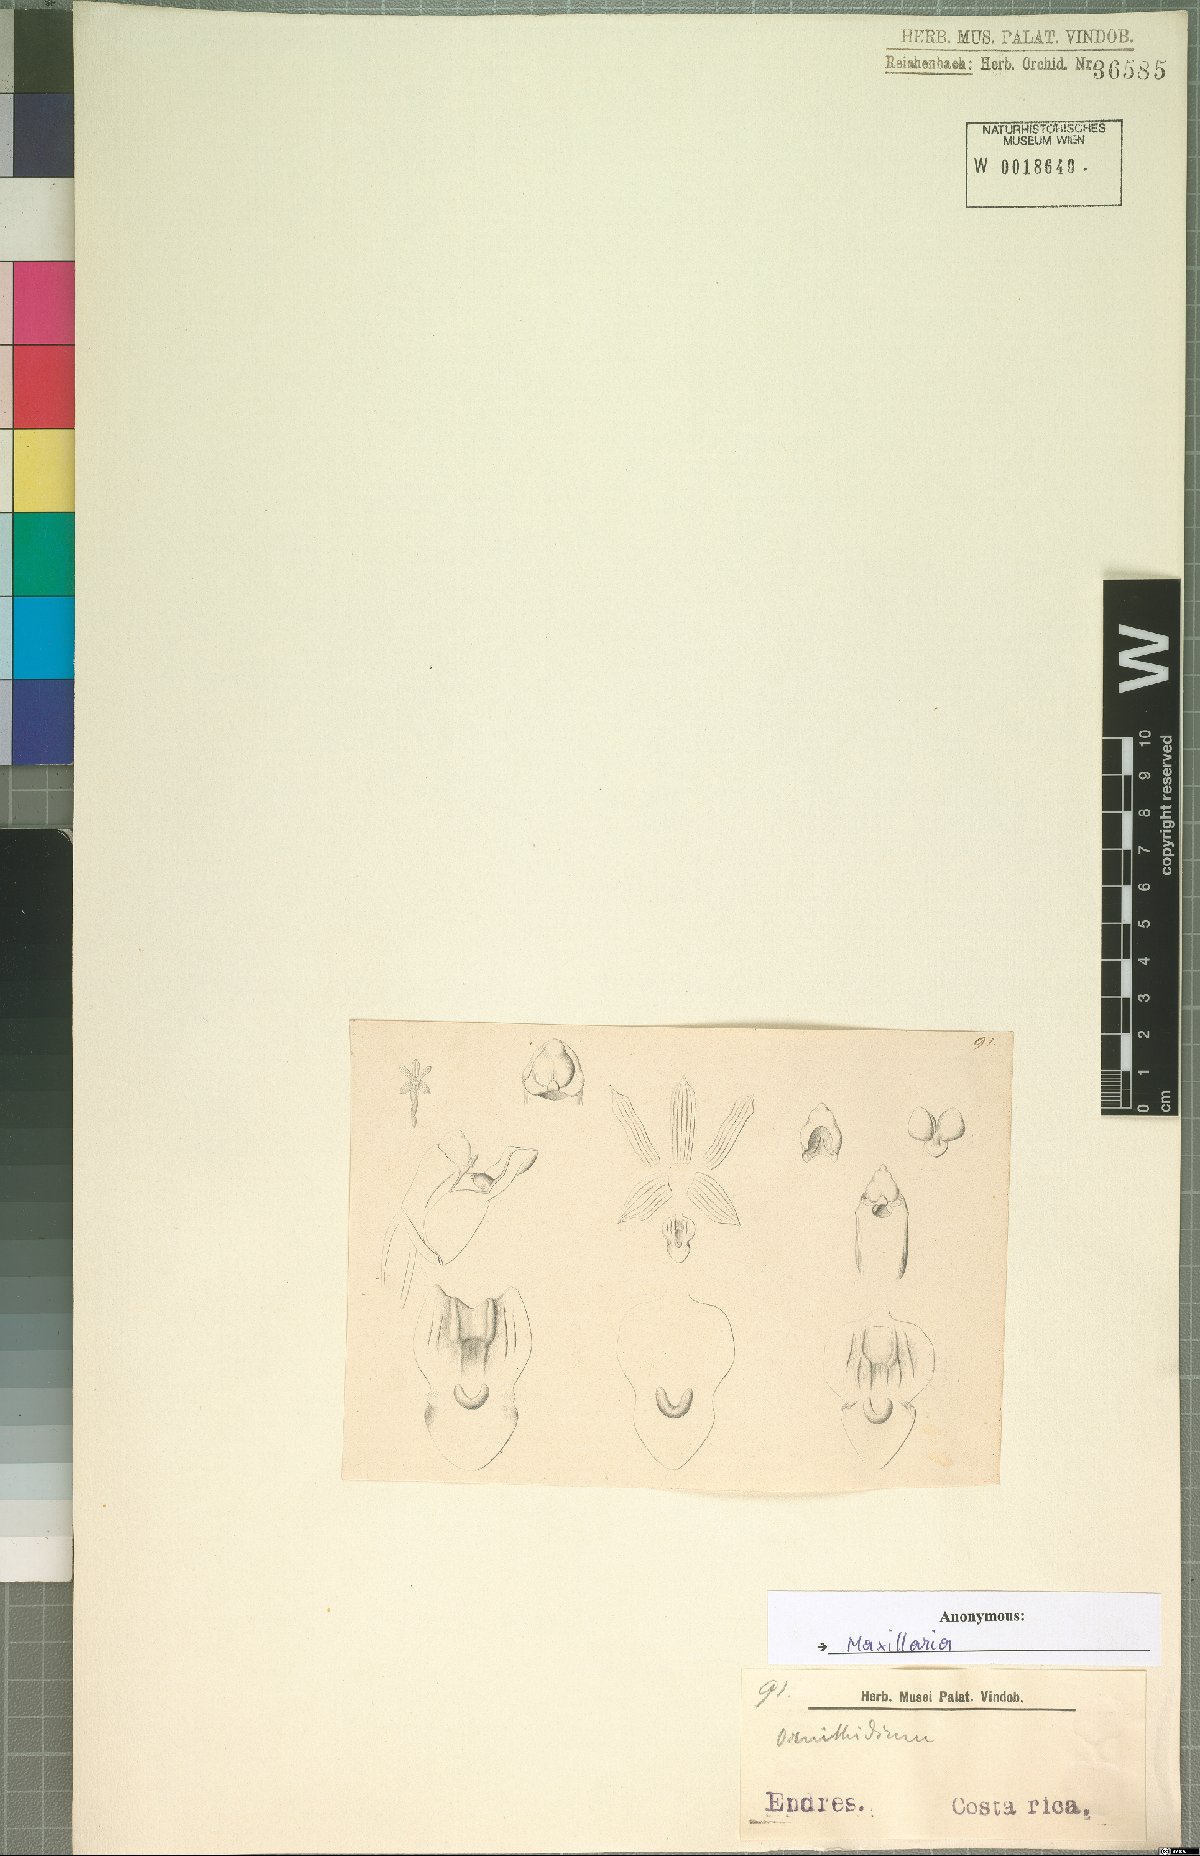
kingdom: Plantae
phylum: Tracheophyta
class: Liliopsida
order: Asparagales
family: Orchidaceae
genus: Maxillaria
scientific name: Maxillaria
